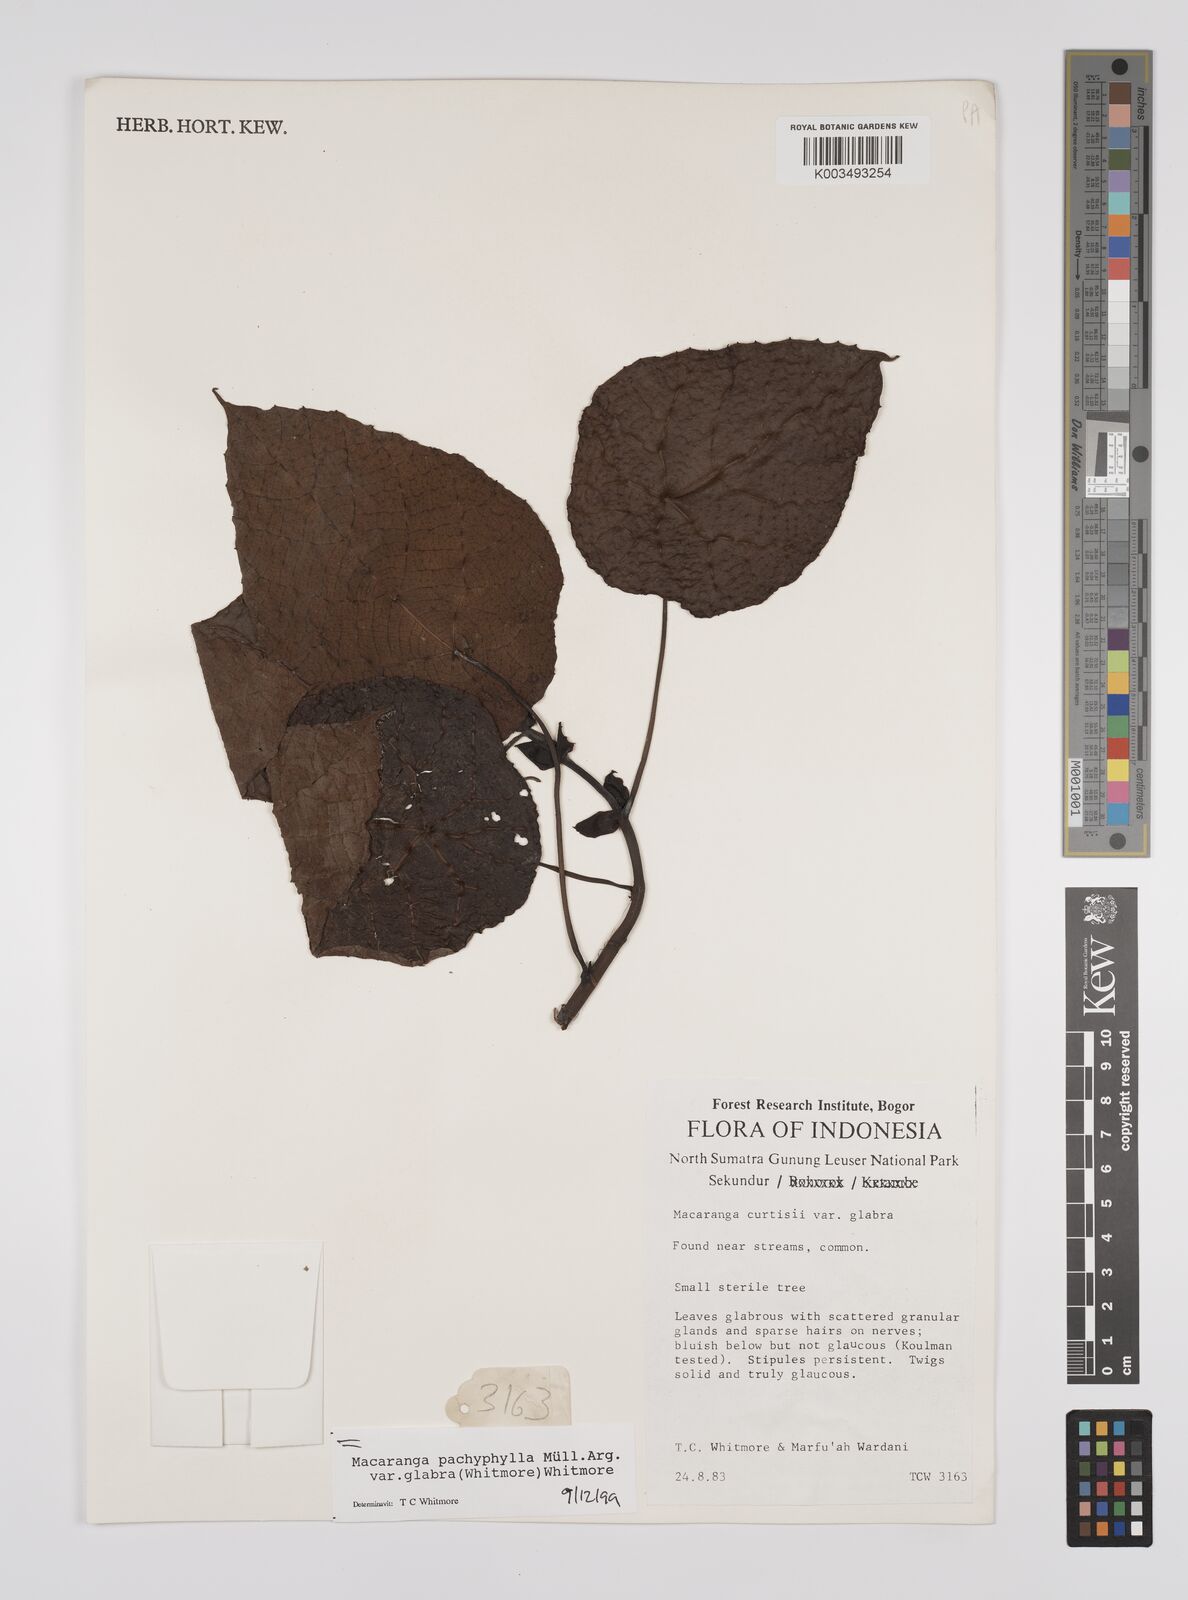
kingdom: Plantae
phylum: Tracheophyta
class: Magnoliopsida
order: Malpighiales
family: Euphorbiaceae
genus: Macaranga
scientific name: Macaranga pachyphylla
